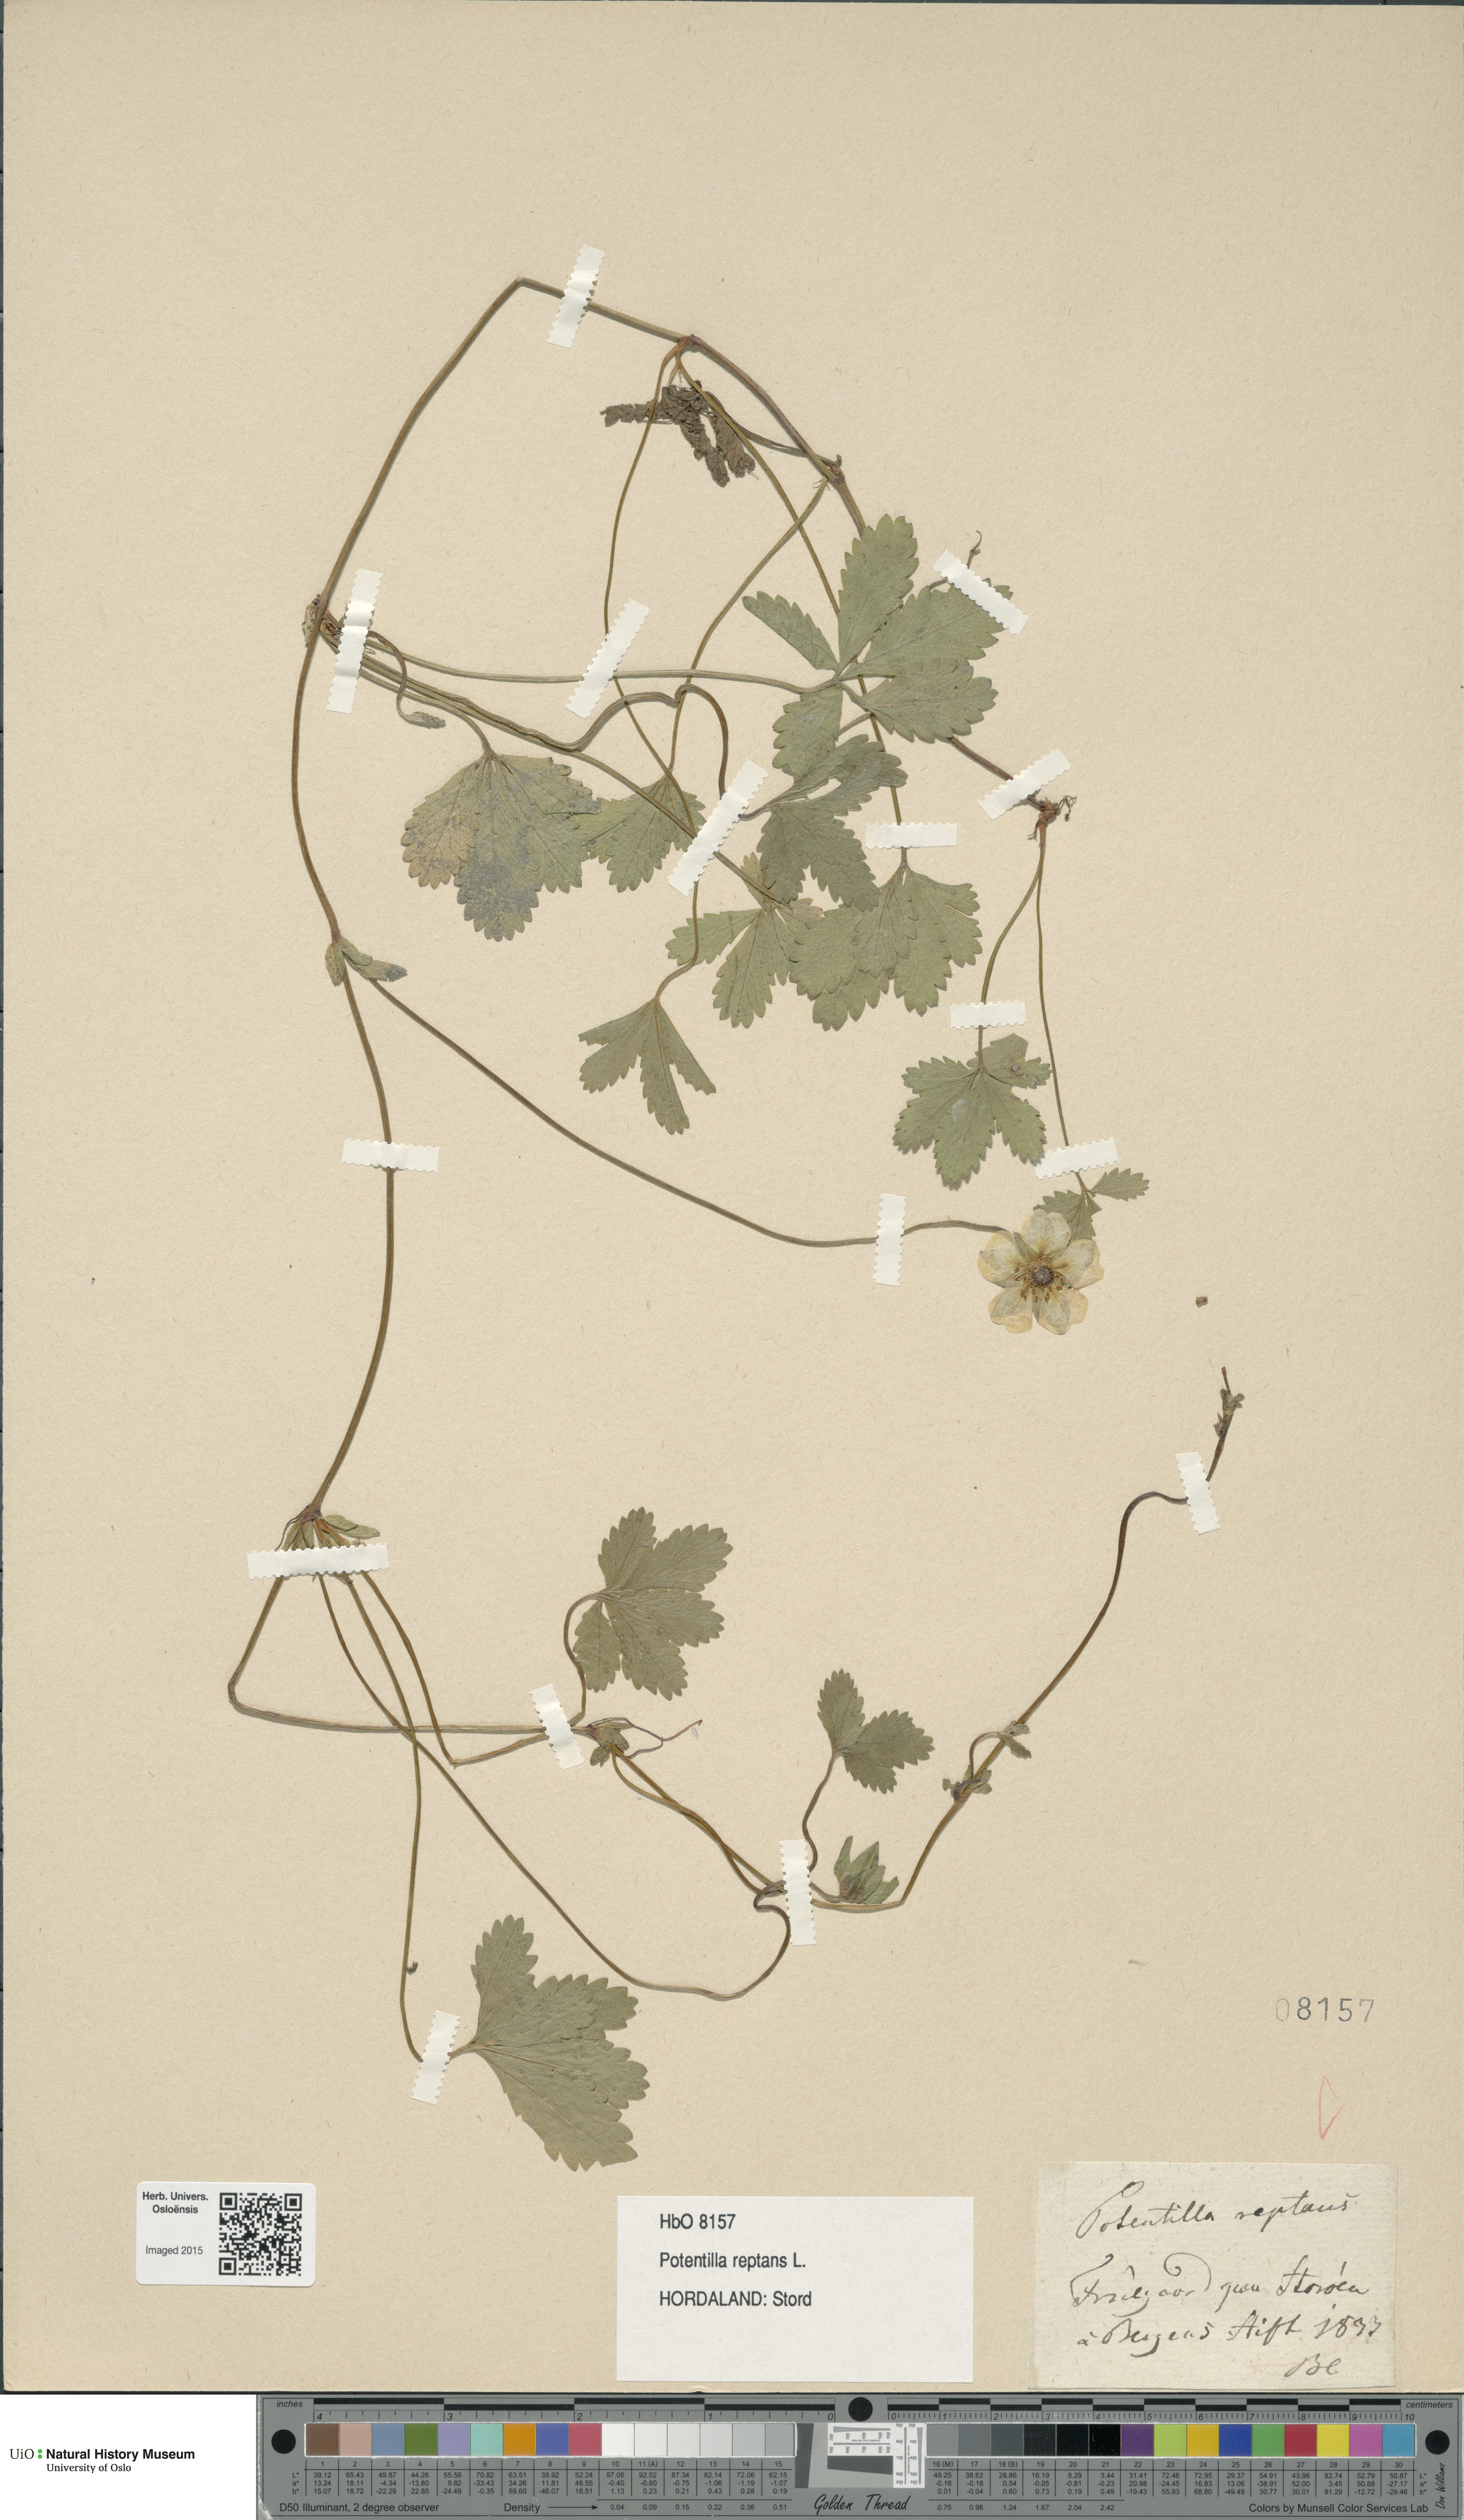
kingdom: Plantae
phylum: Tracheophyta
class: Magnoliopsida
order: Rosales
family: Rosaceae
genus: Potentilla
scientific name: Potentilla reptans
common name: Creeping cinquefoil
